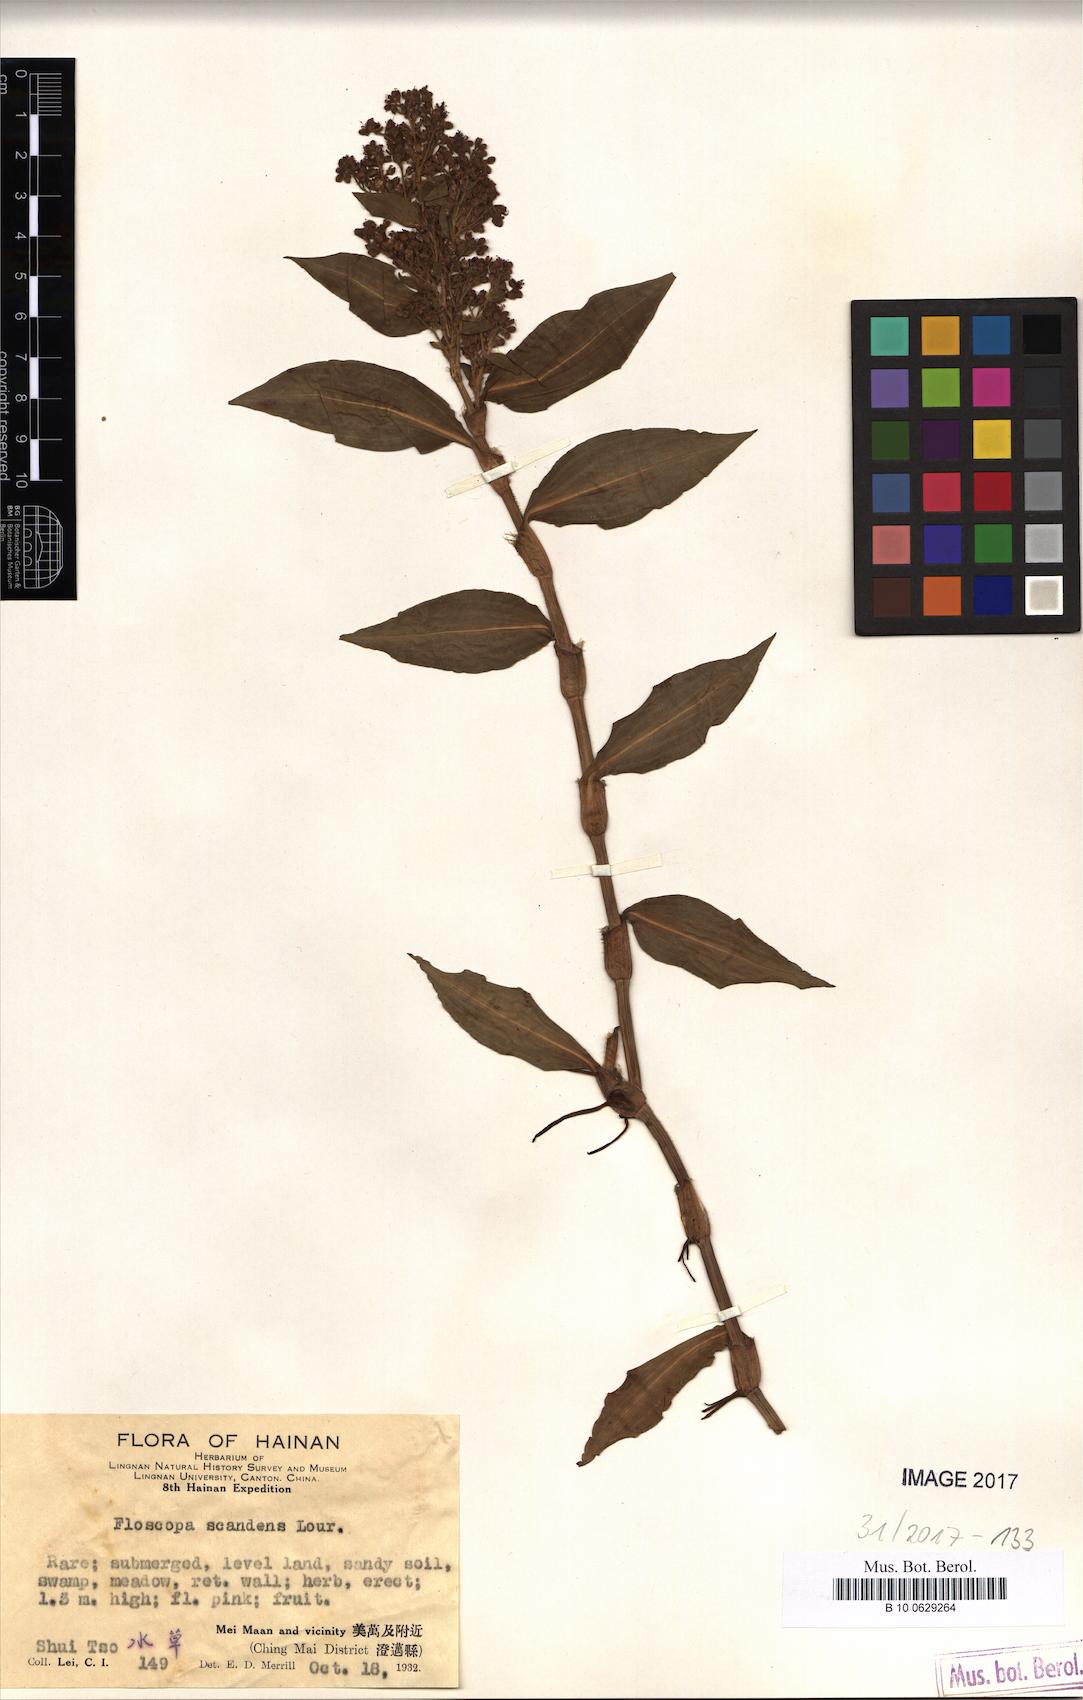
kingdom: Plantae
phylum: Tracheophyta
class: Liliopsida
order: Commelinales
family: Commelinaceae
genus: Floscopa
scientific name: Floscopa scandens
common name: Climbing flower cup
